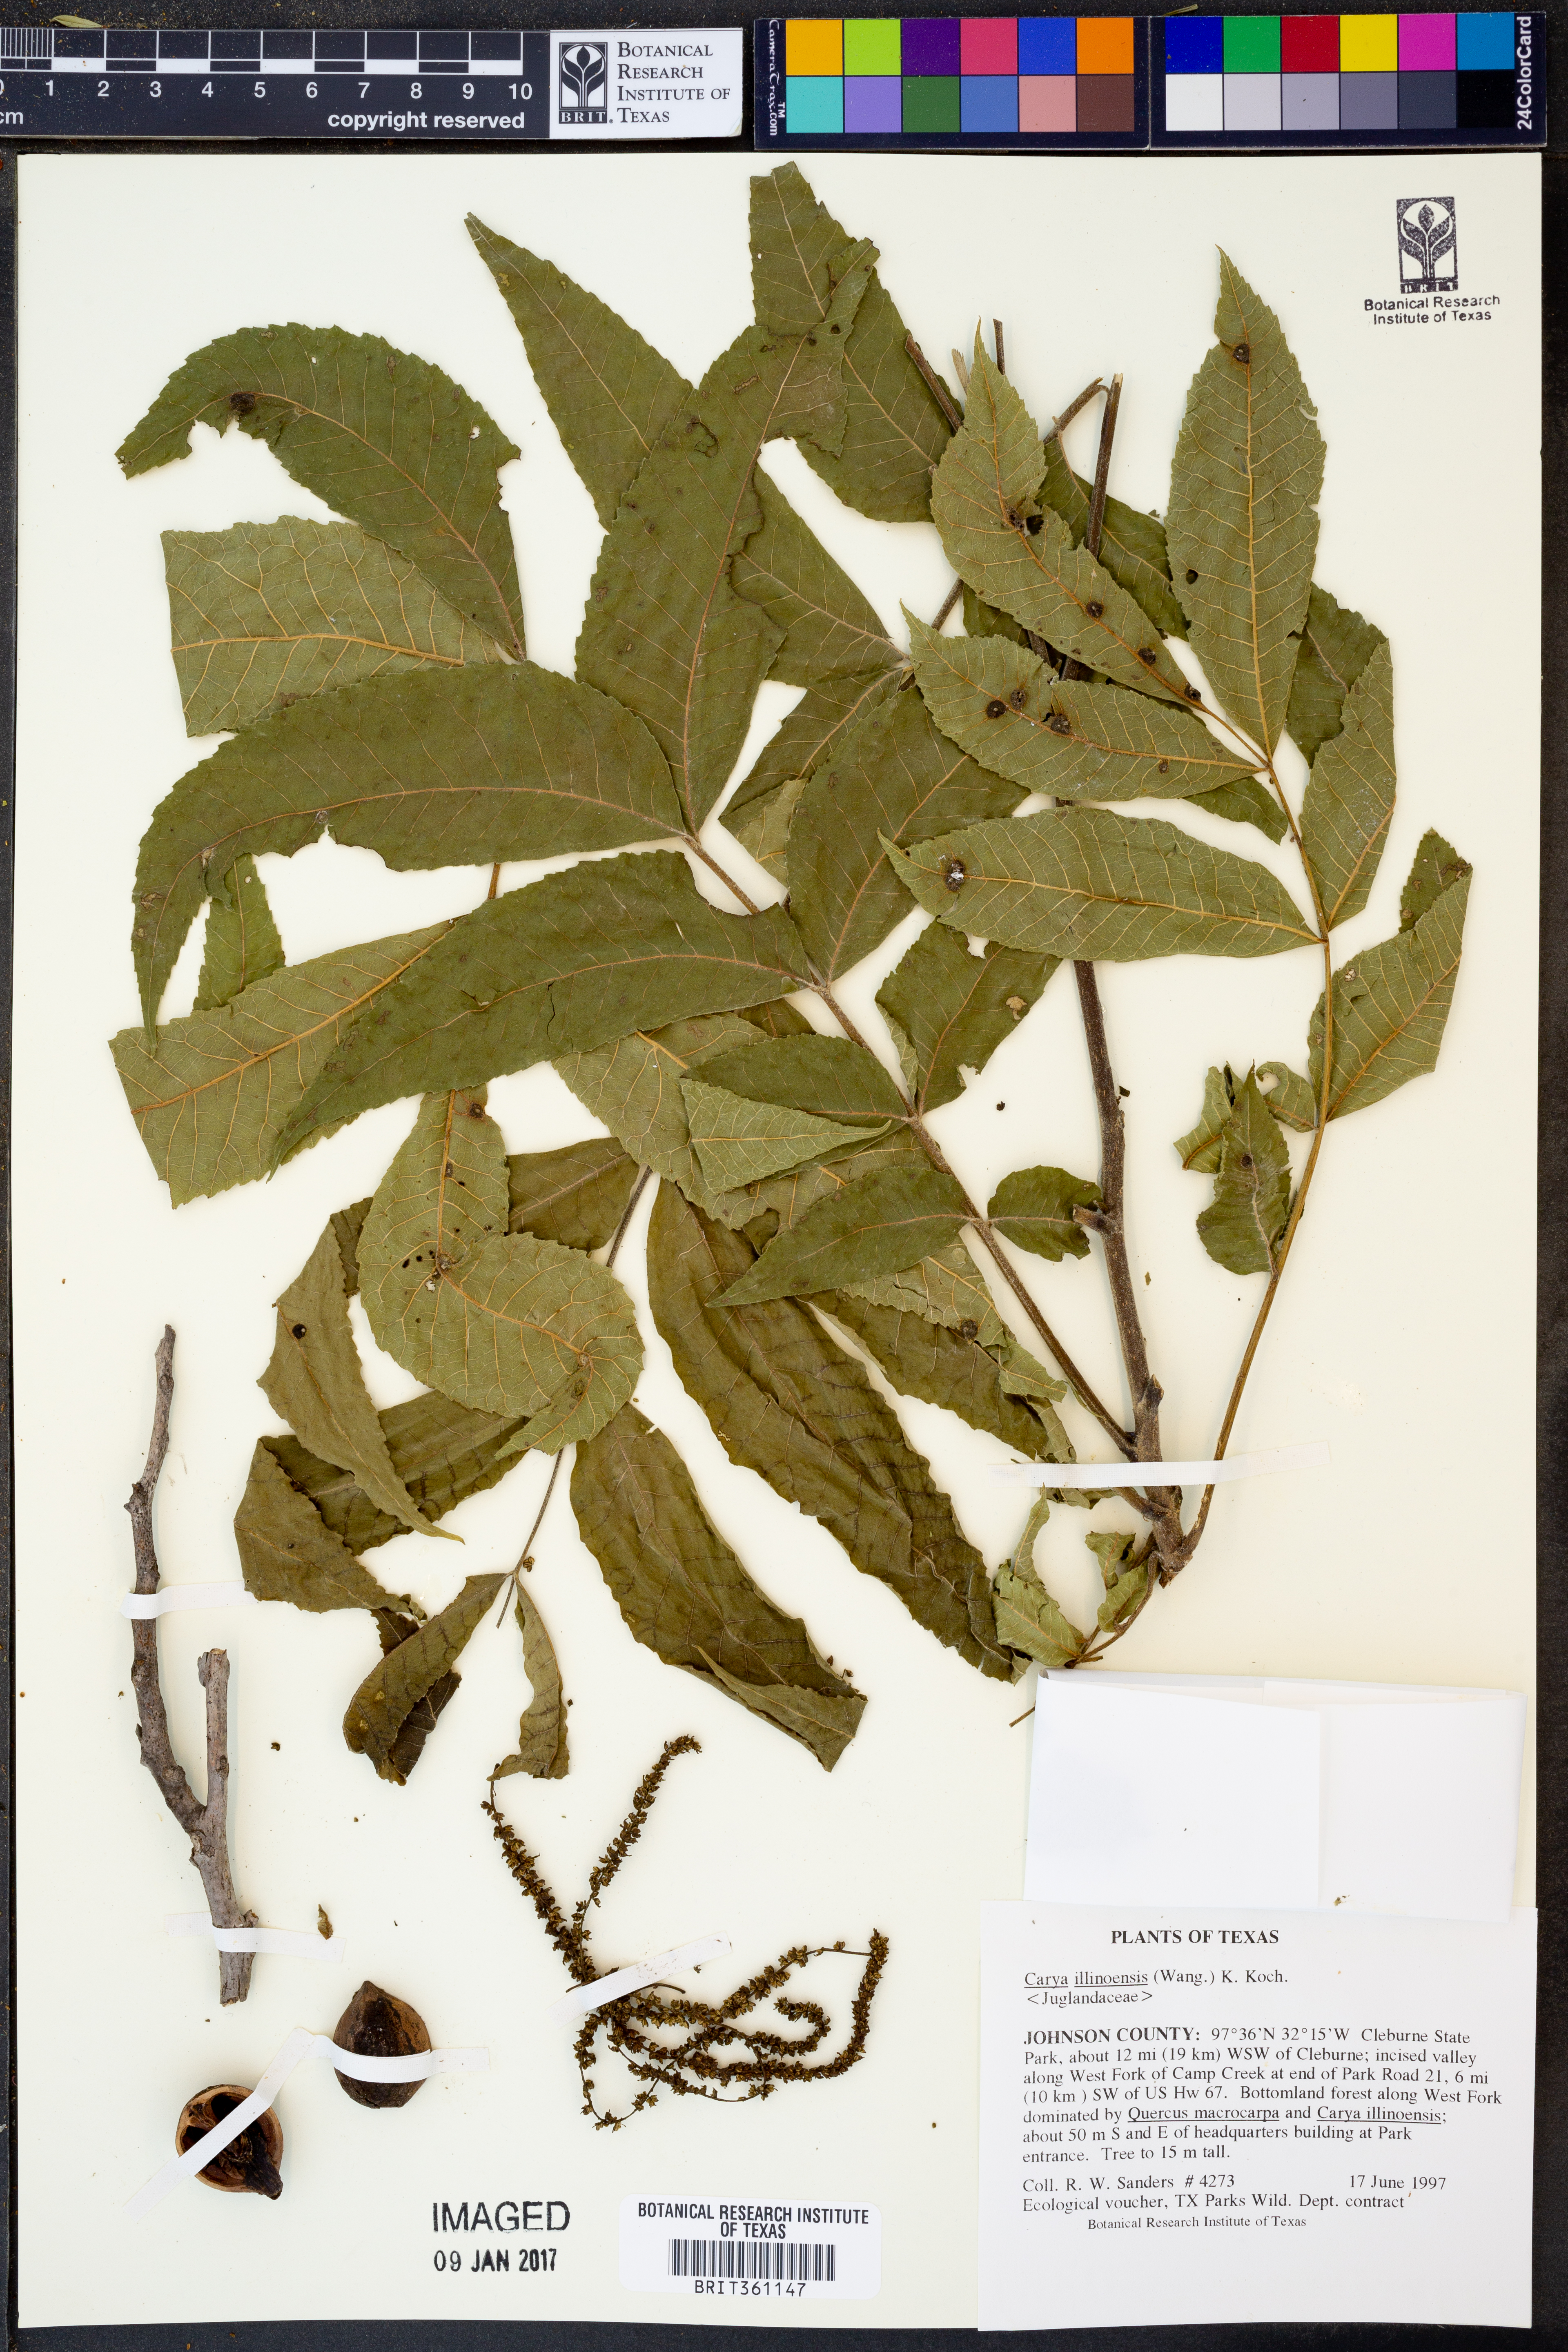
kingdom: Plantae
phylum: Tracheophyta
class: Magnoliopsida
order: Fagales
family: Juglandaceae
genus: Carya
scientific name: Carya illinoinensis
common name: Pecan
